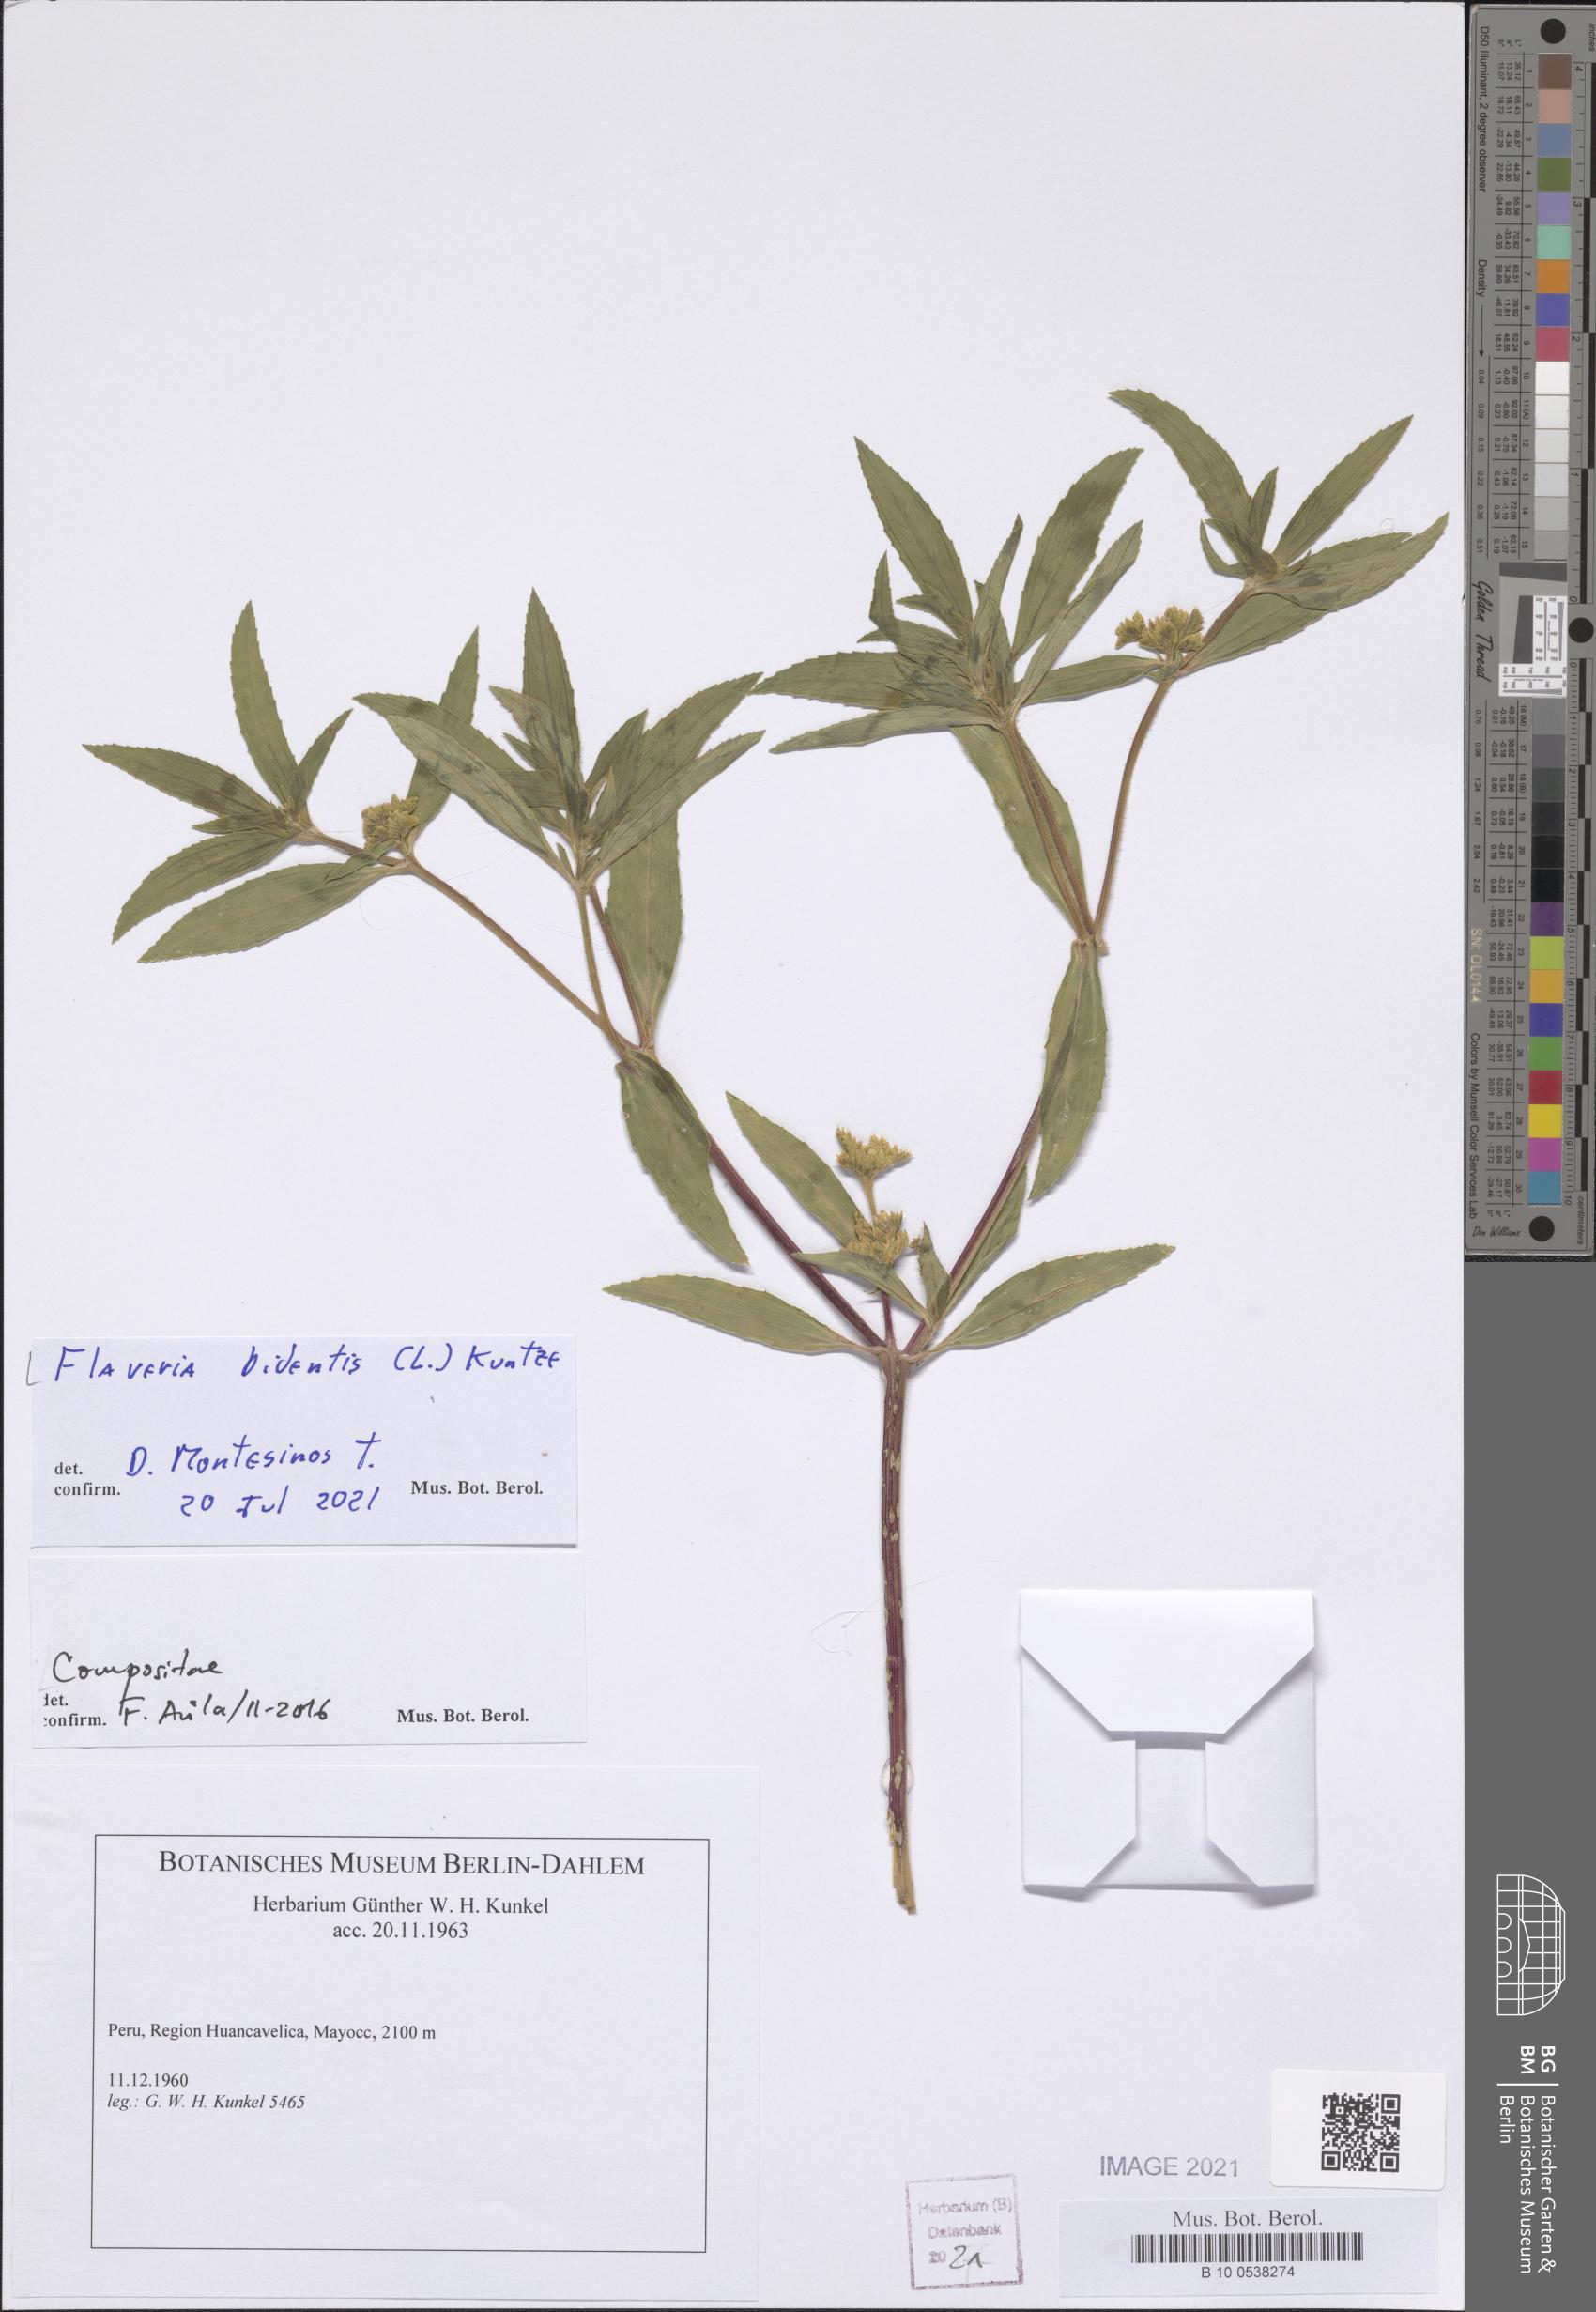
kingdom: Plantae
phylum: Tracheophyta
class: Magnoliopsida
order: Asterales
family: Asteraceae
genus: Flaveria
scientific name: Flaveria bidentis
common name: Coastal plain yellowtops
